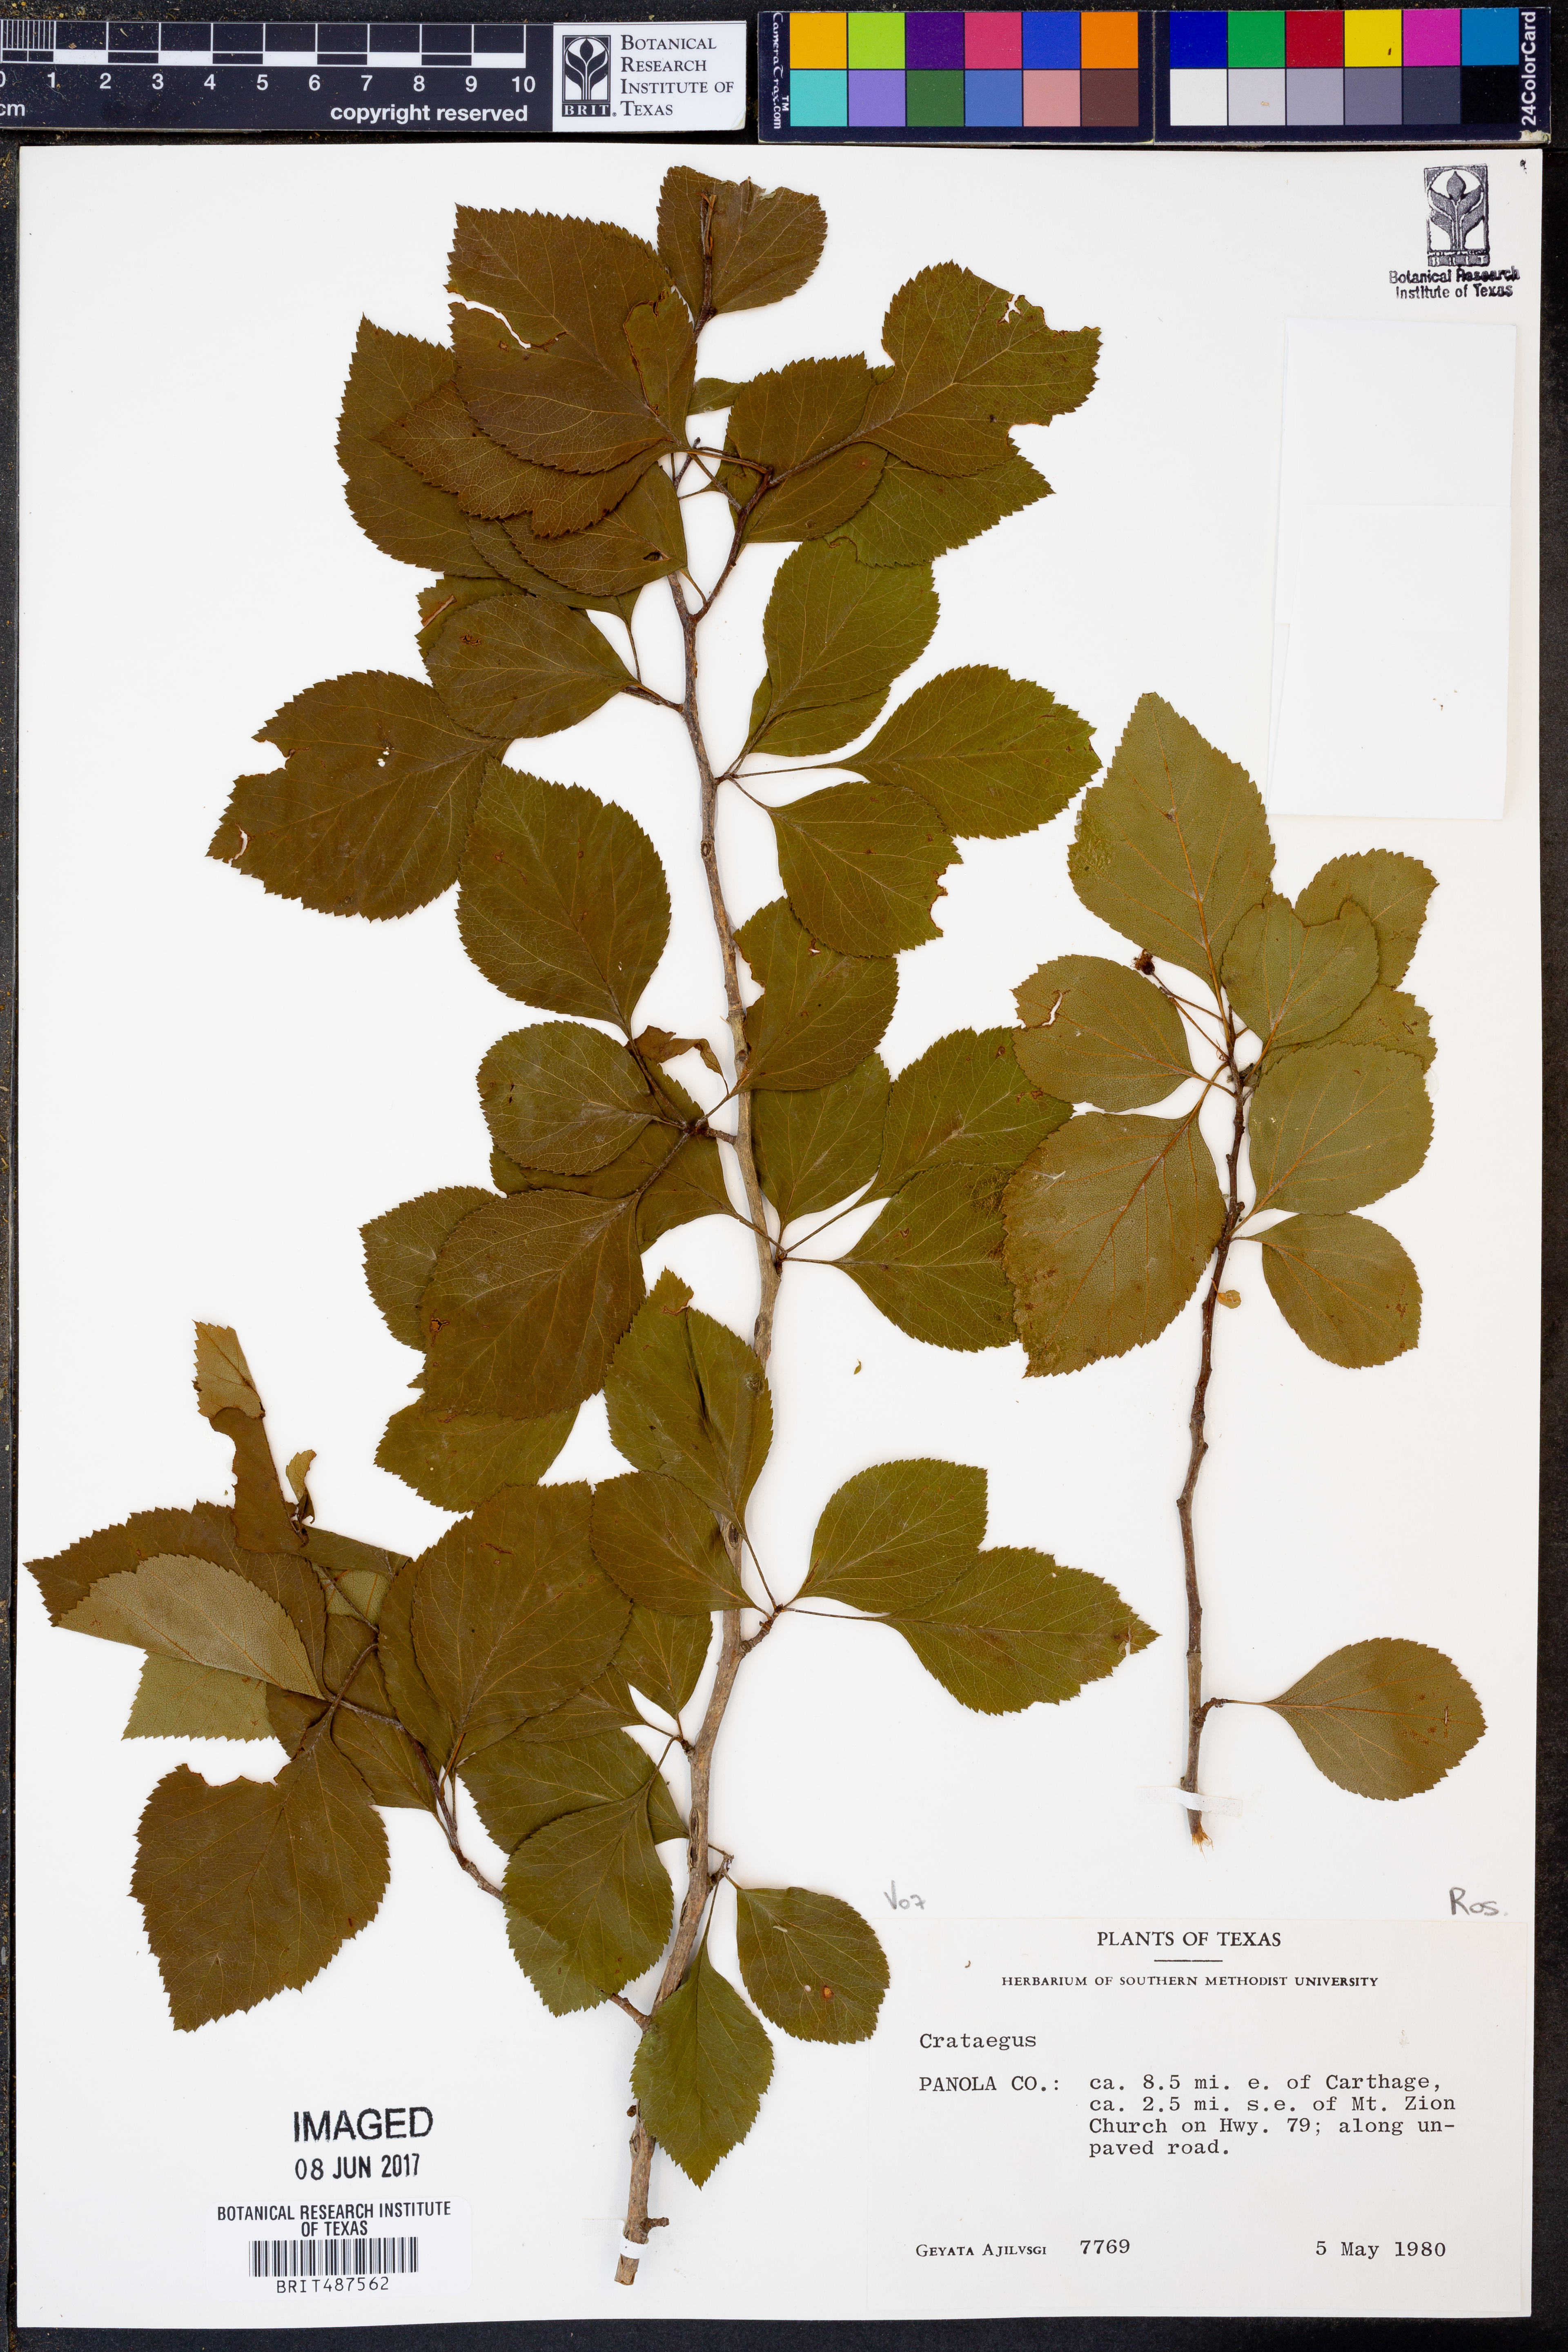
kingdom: Plantae
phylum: Tracheophyta
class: Magnoliopsida
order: Rosales
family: Rosaceae
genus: Crataegus
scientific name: Crataegus
